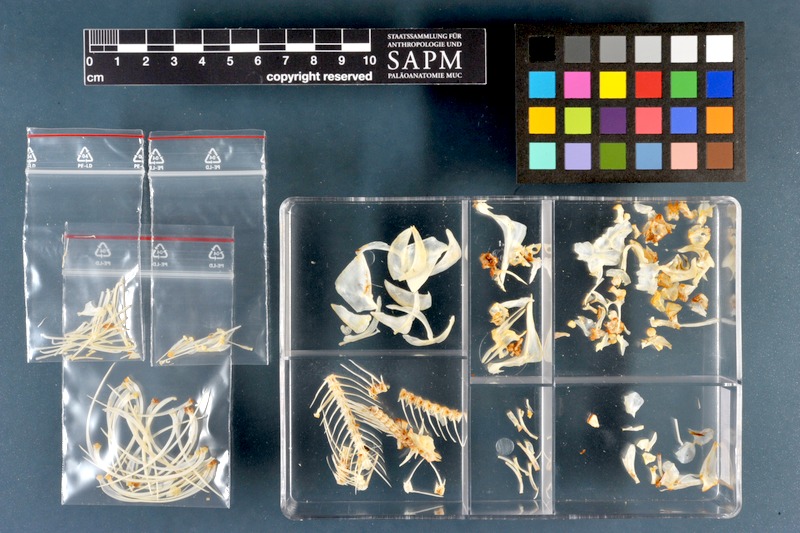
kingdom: Animalia
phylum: Chordata
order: Cypriniformes
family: Cyprinidae
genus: Rutilus
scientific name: Rutilus rutilus
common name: Roach
